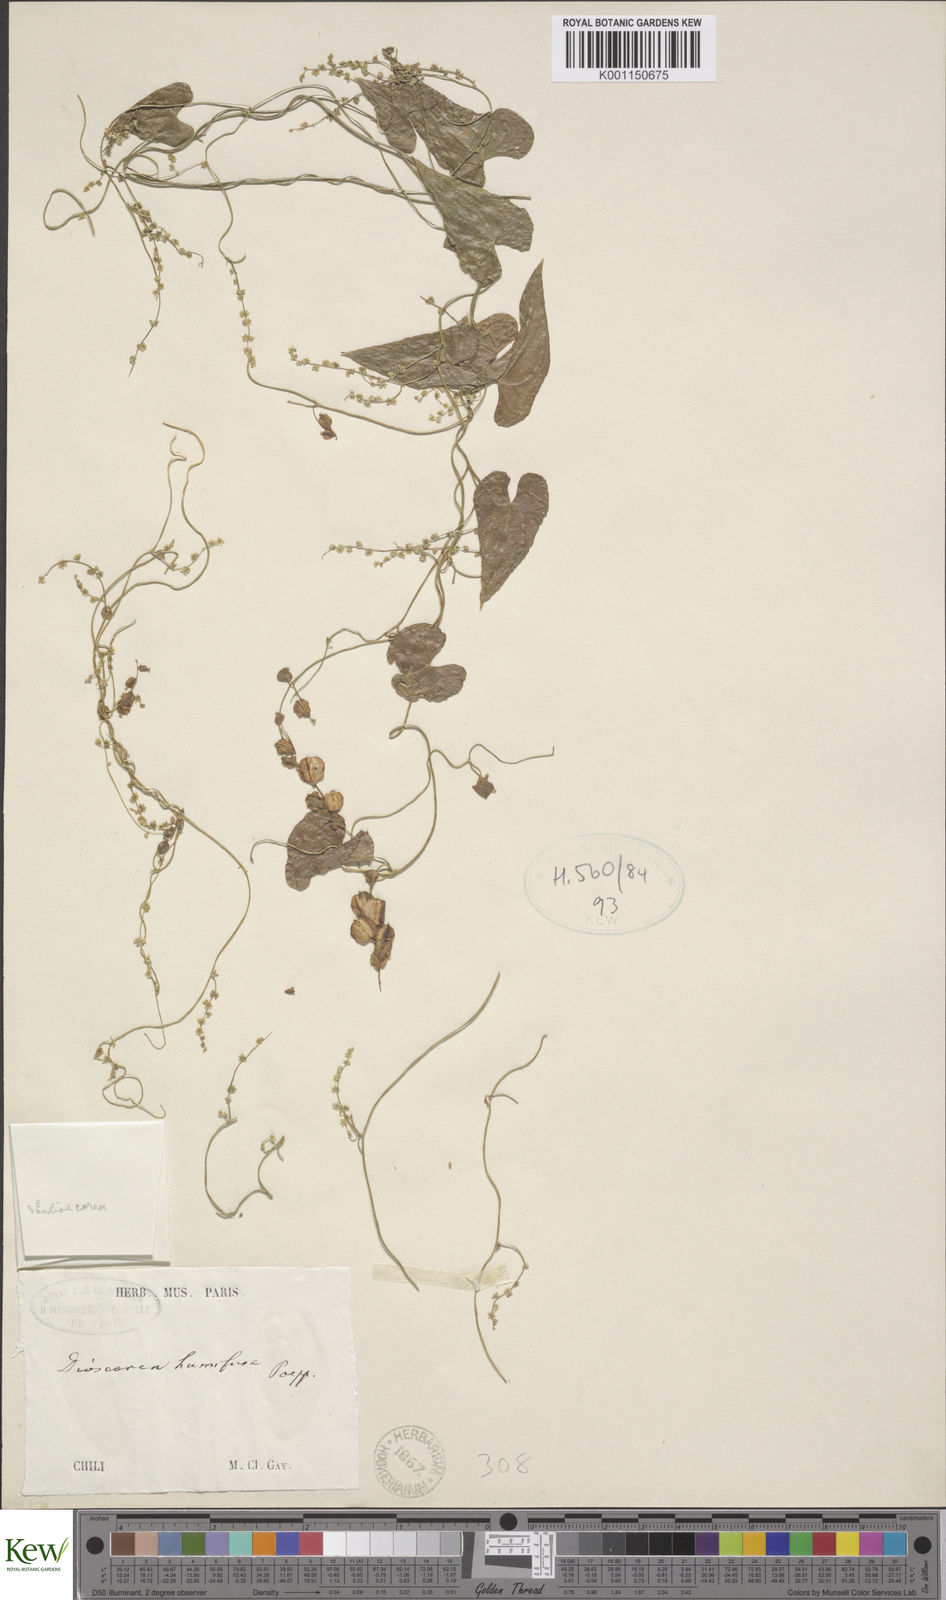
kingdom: Plantae
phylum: Tracheophyta
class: Liliopsida
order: Dioscoreales
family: Dioscoreaceae
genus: Dioscorea
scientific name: Dioscorea humifusa
